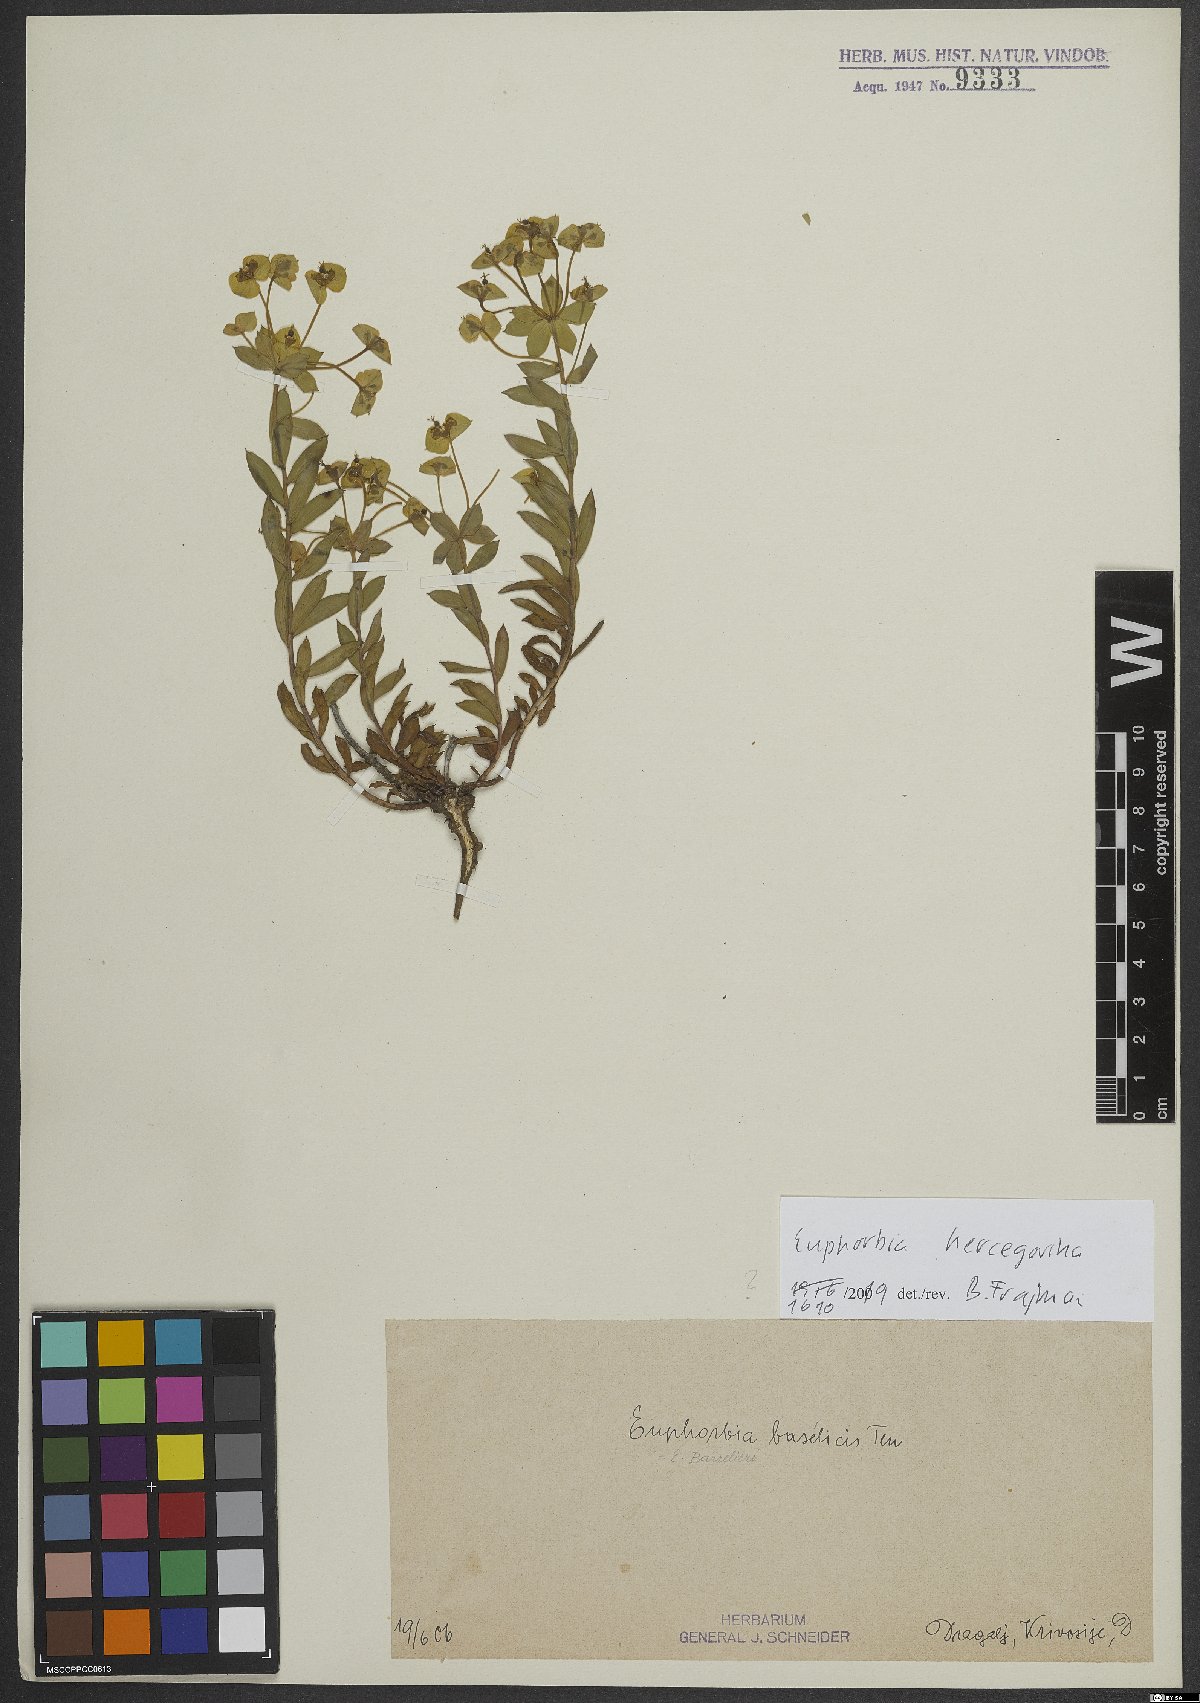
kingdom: Plantae
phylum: Tracheophyta
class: Magnoliopsida
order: Malpighiales
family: Euphorbiaceae
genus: Euphorbia
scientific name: Euphorbia barrelieri
